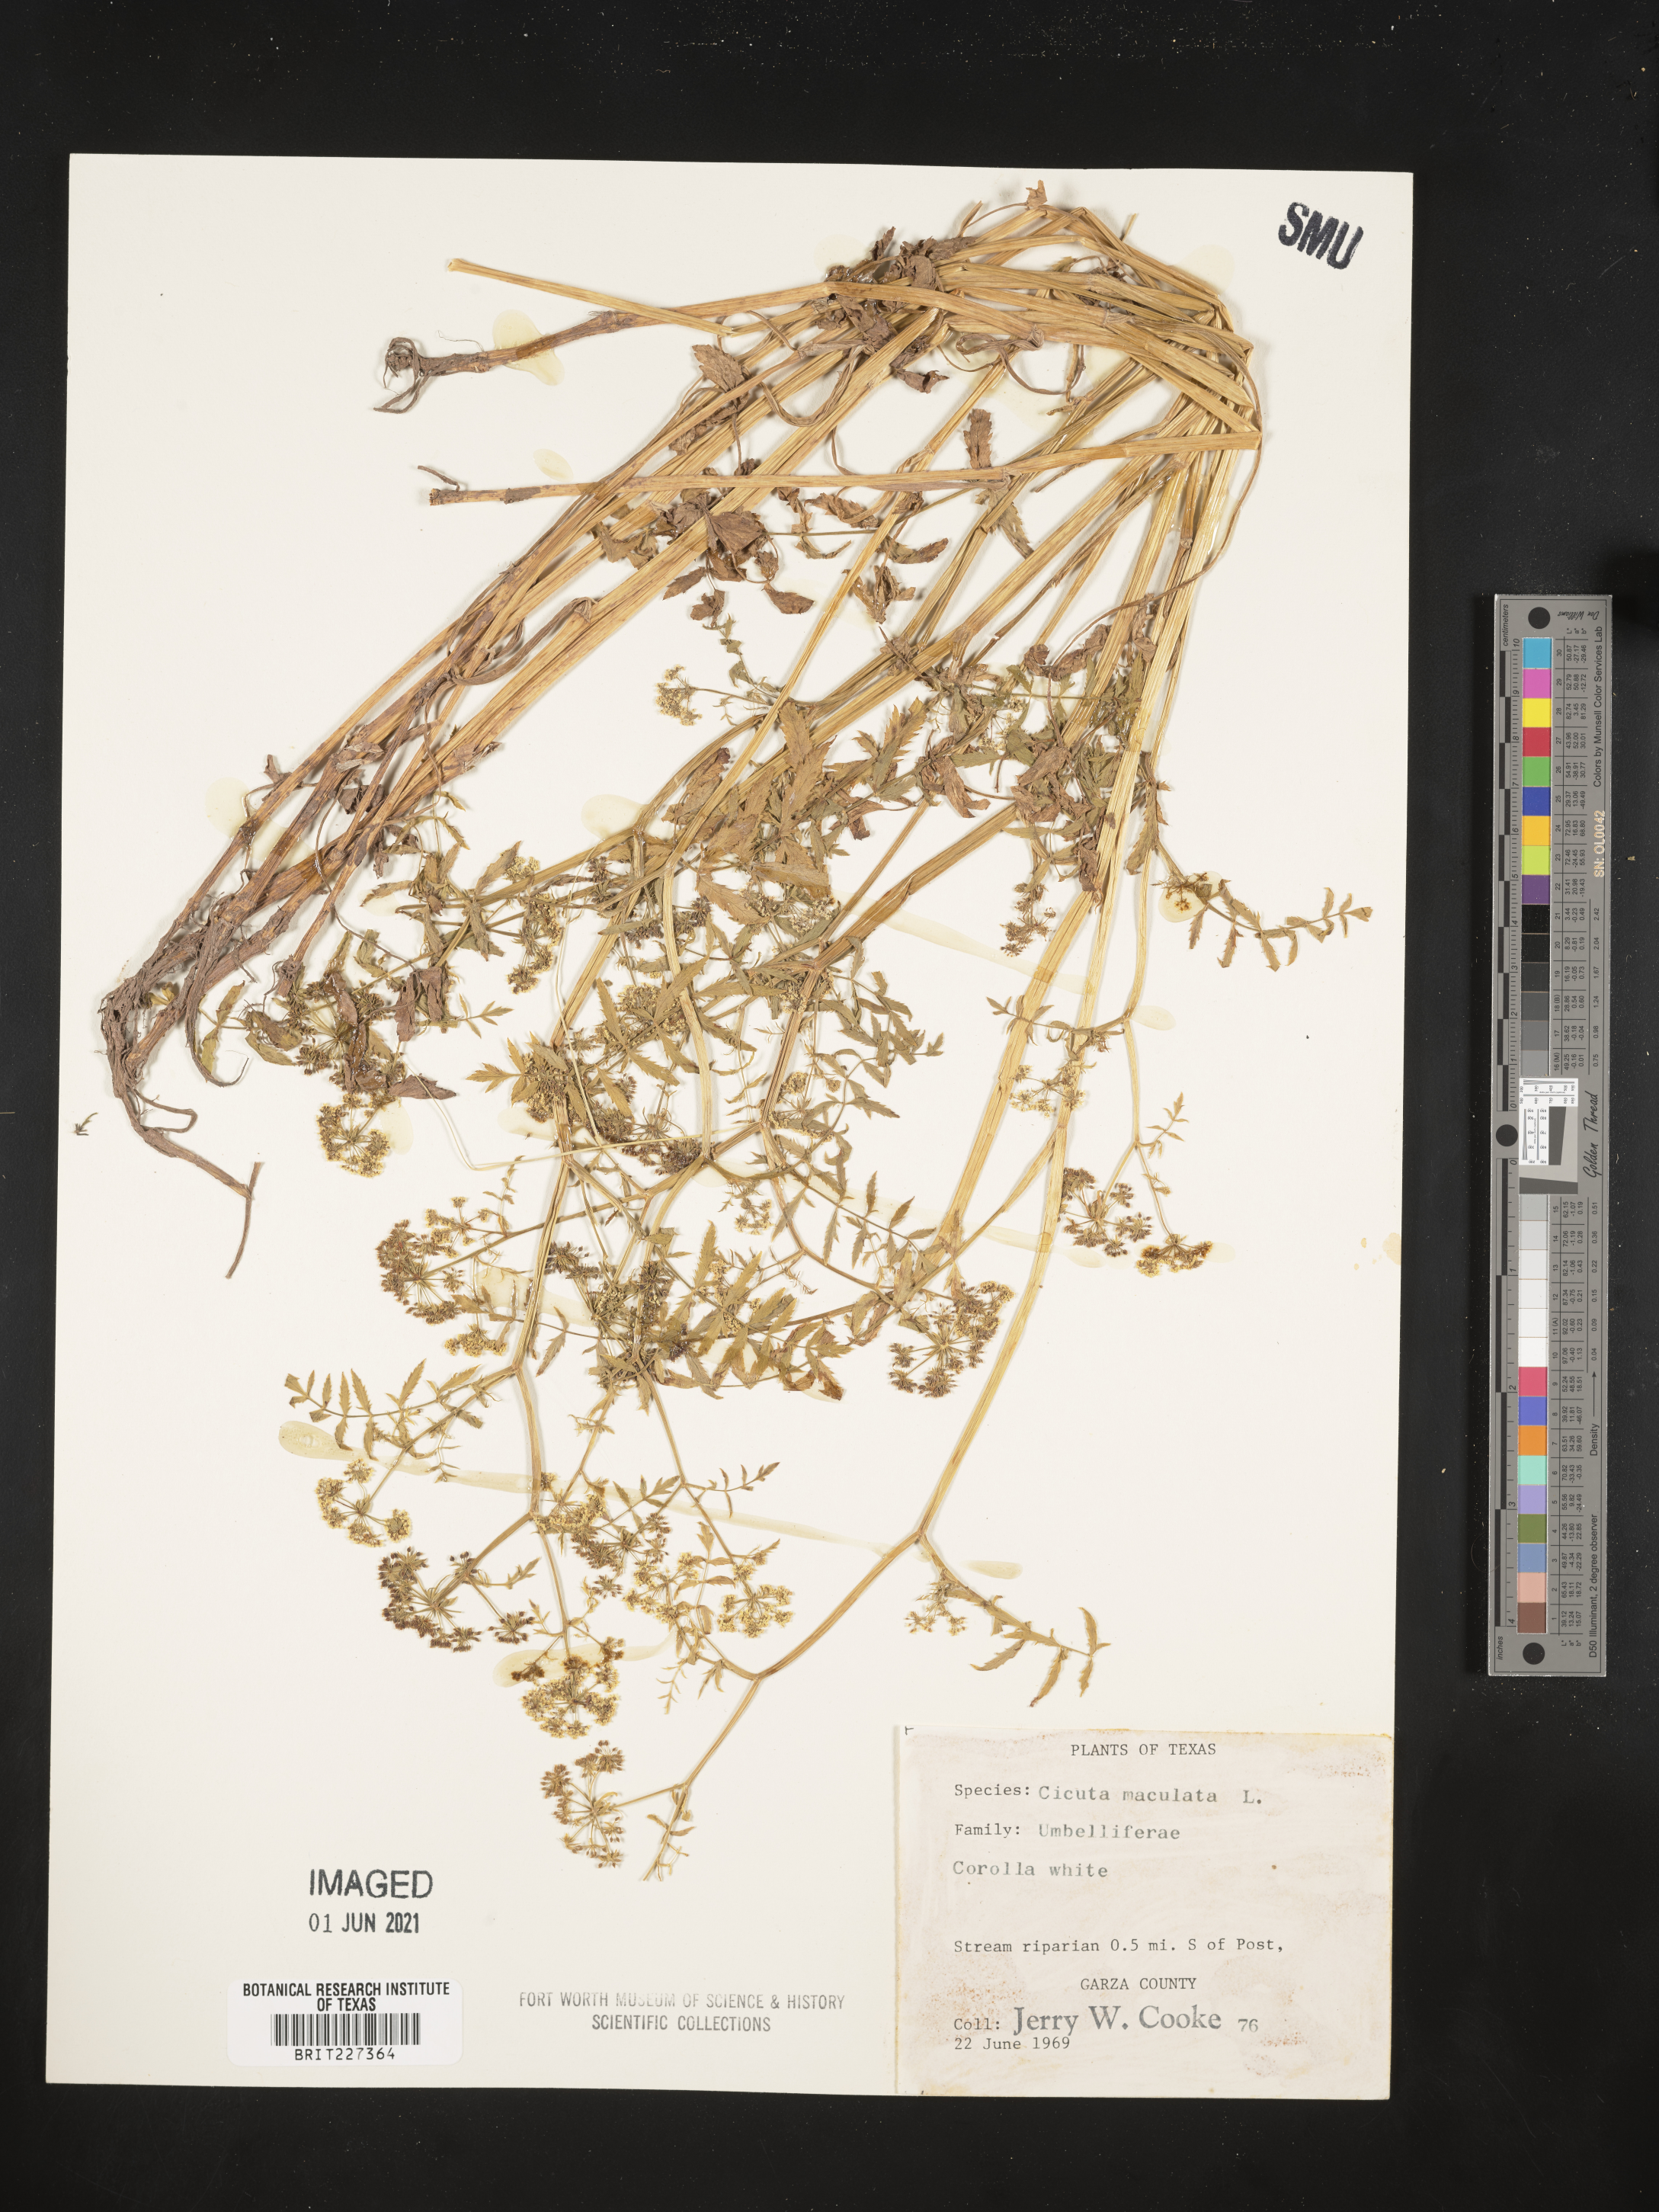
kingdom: Plantae
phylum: Tracheophyta
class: Magnoliopsida
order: Apiales
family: Apiaceae
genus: Cicuta
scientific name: Cicuta maculata
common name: Spotted cowbane
